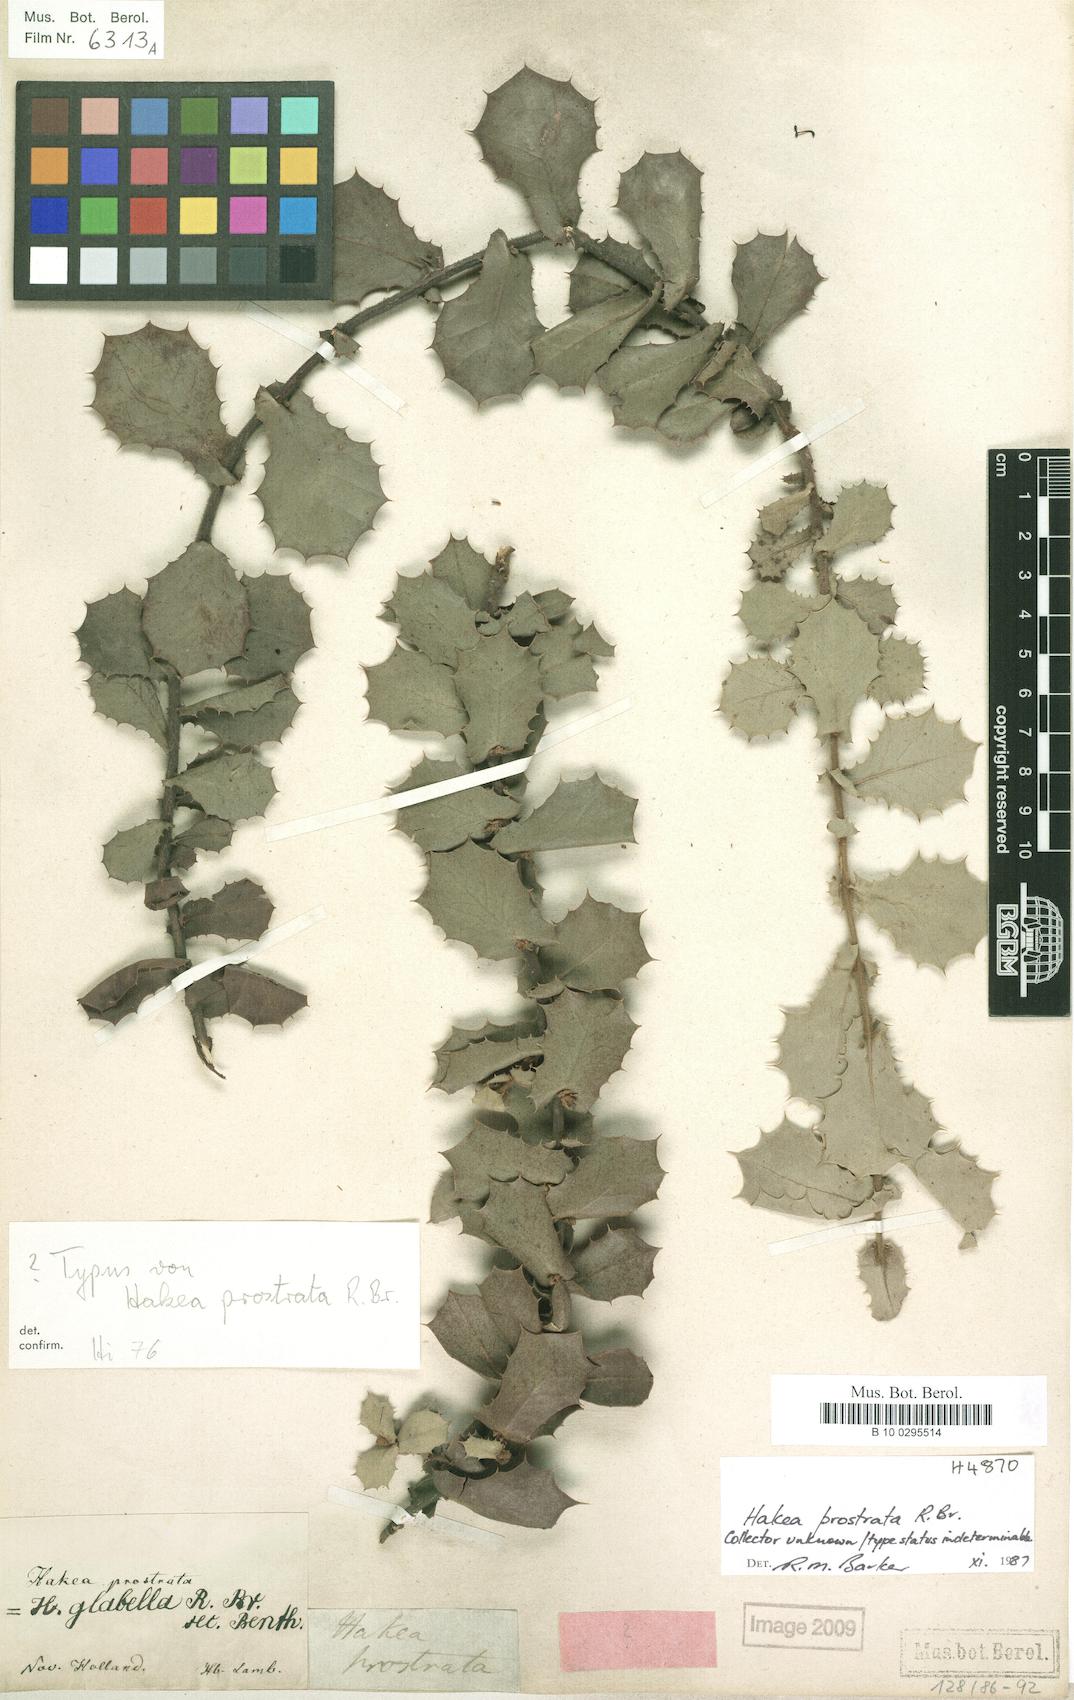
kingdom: Plantae
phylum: Tracheophyta
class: Magnoliopsida
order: Proteales
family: Proteaceae
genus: Hakea
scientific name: Hakea prostrata
